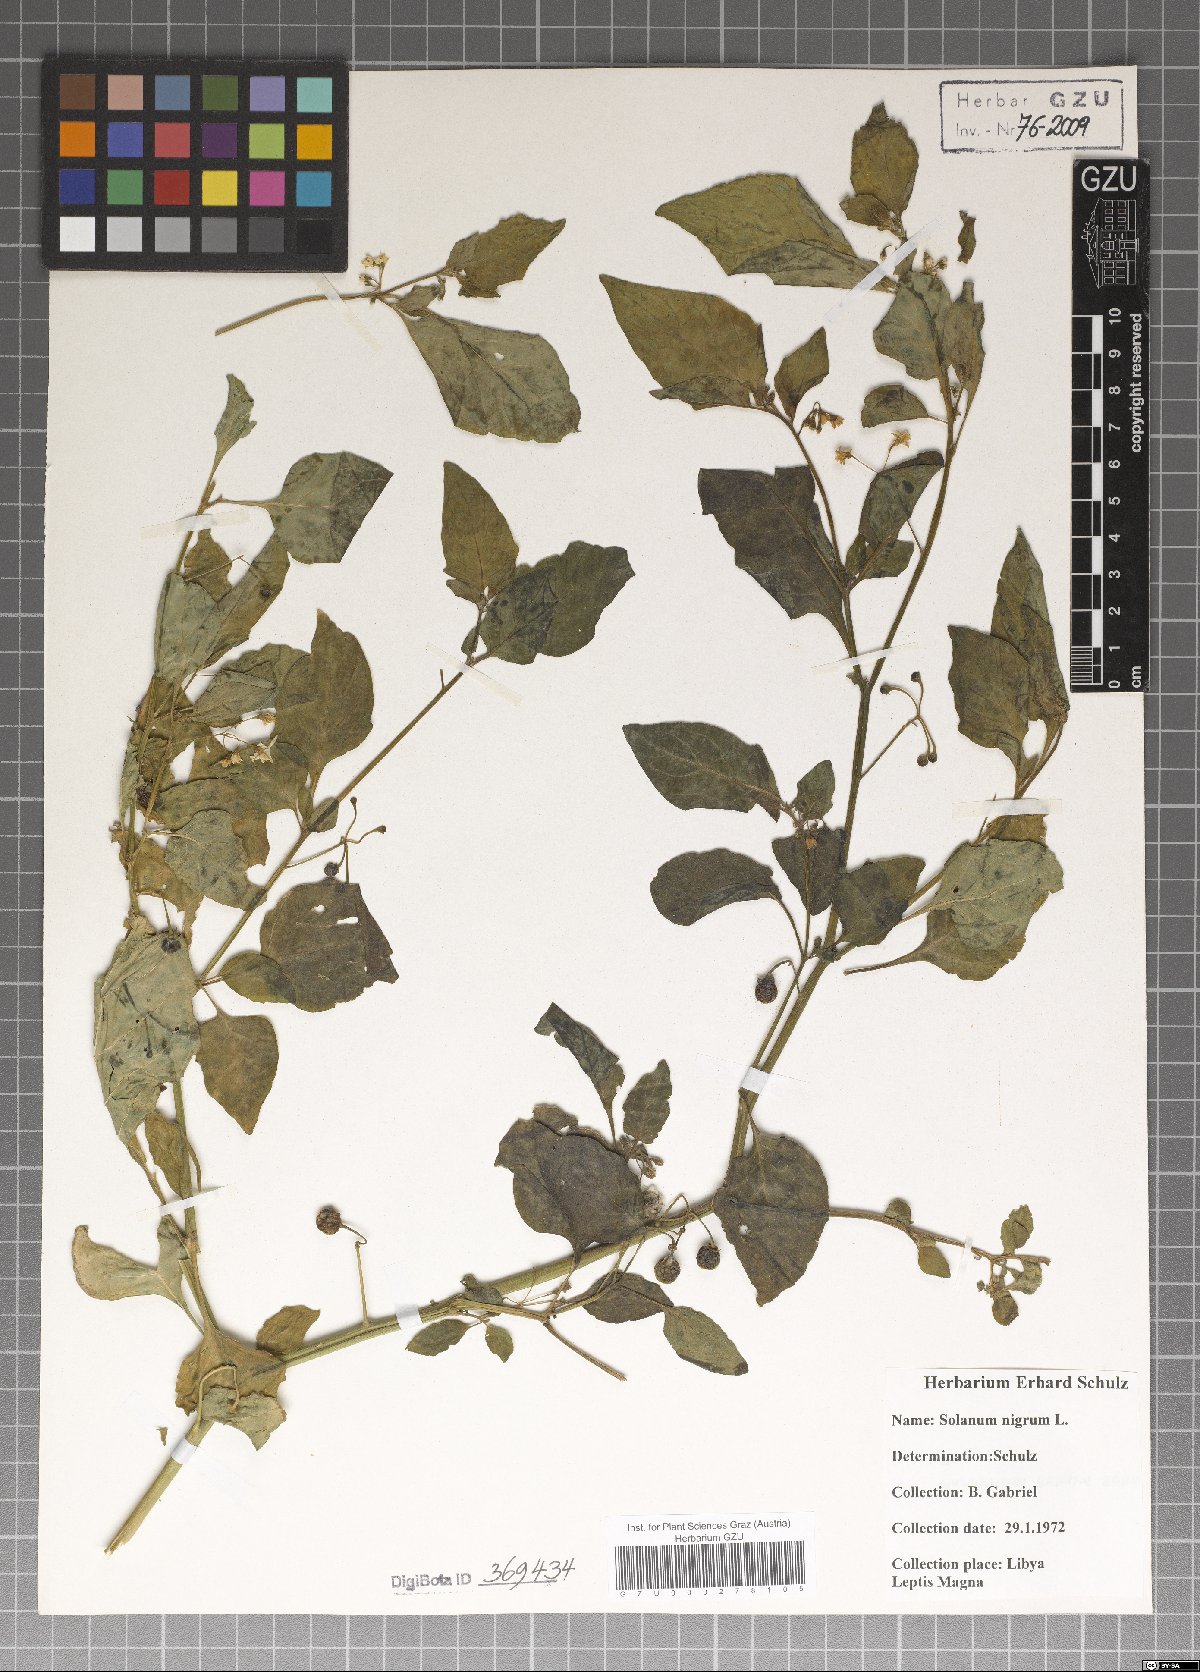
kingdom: Plantae
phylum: Tracheophyta
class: Magnoliopsida
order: Solanales
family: Solanaceae
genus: Solanum
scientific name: Solanum nigrum
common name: Black nightshade
